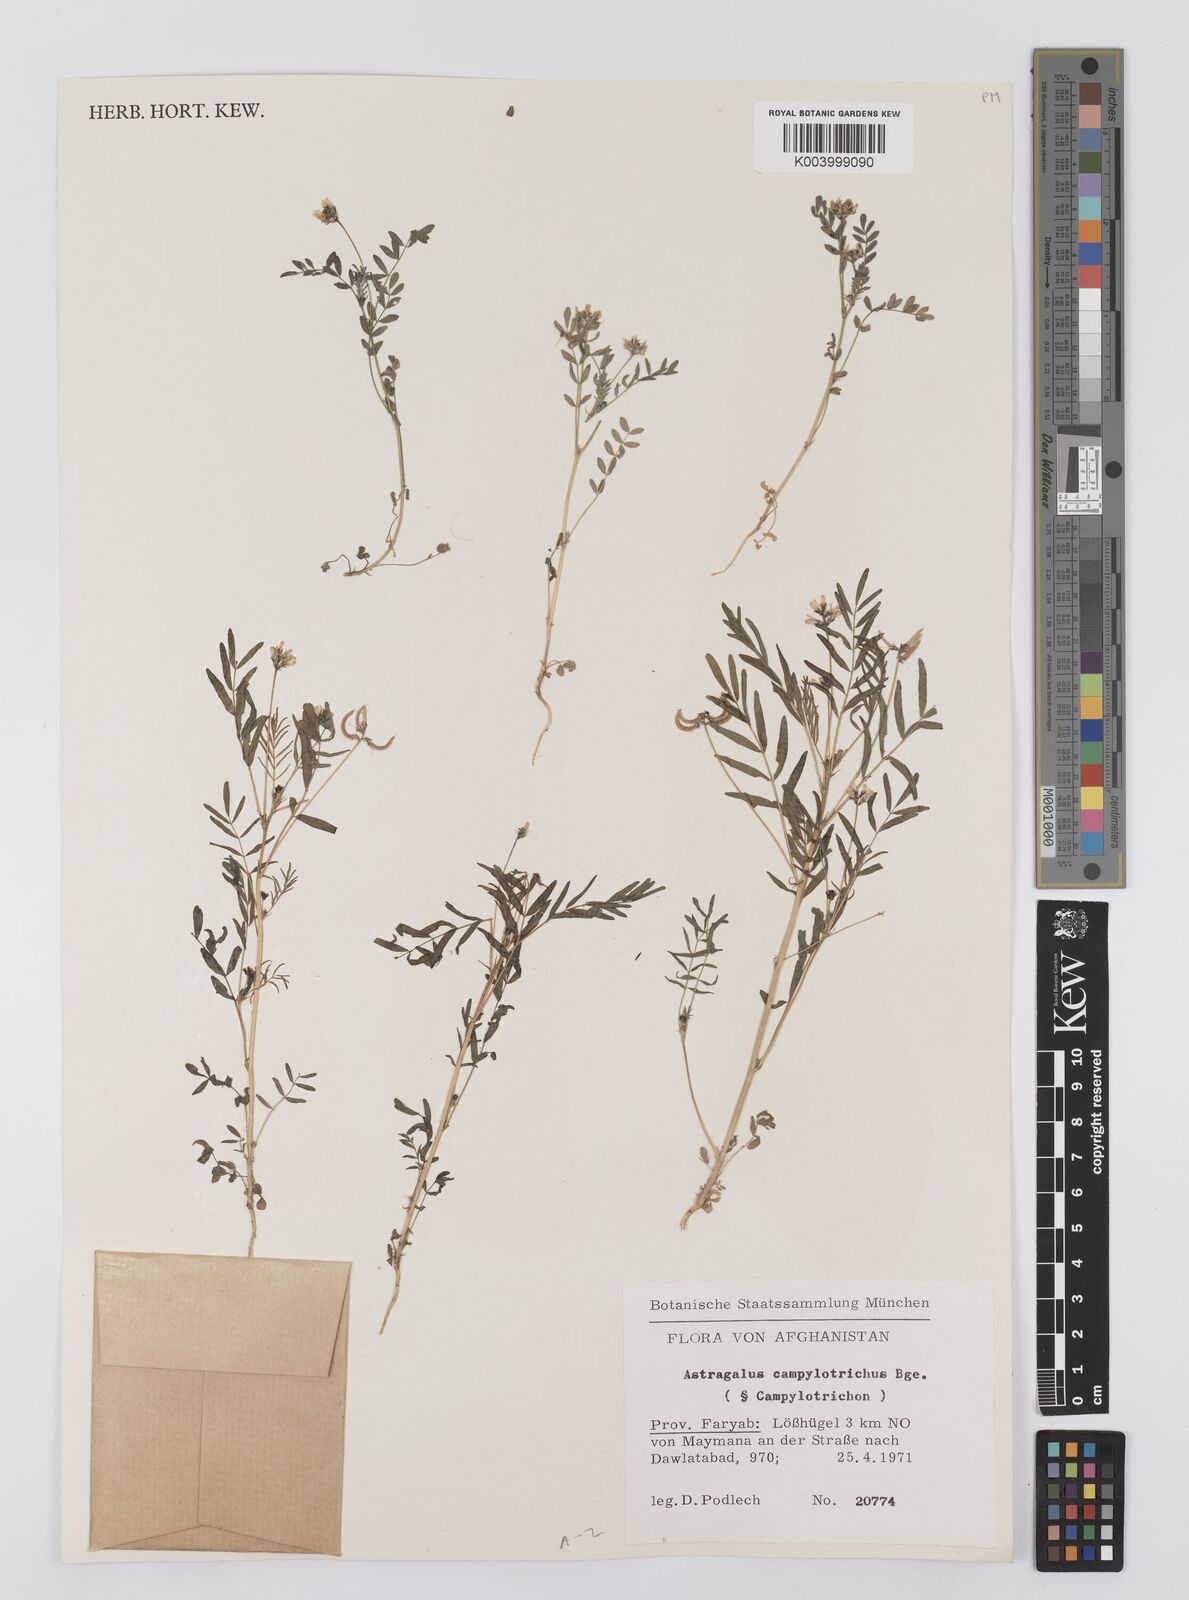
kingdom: Plantae
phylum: Tracheophyta
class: Magnoliopsida
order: Fabales
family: Fabaceae
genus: Astragalus
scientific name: Astragalus campylotrichus
